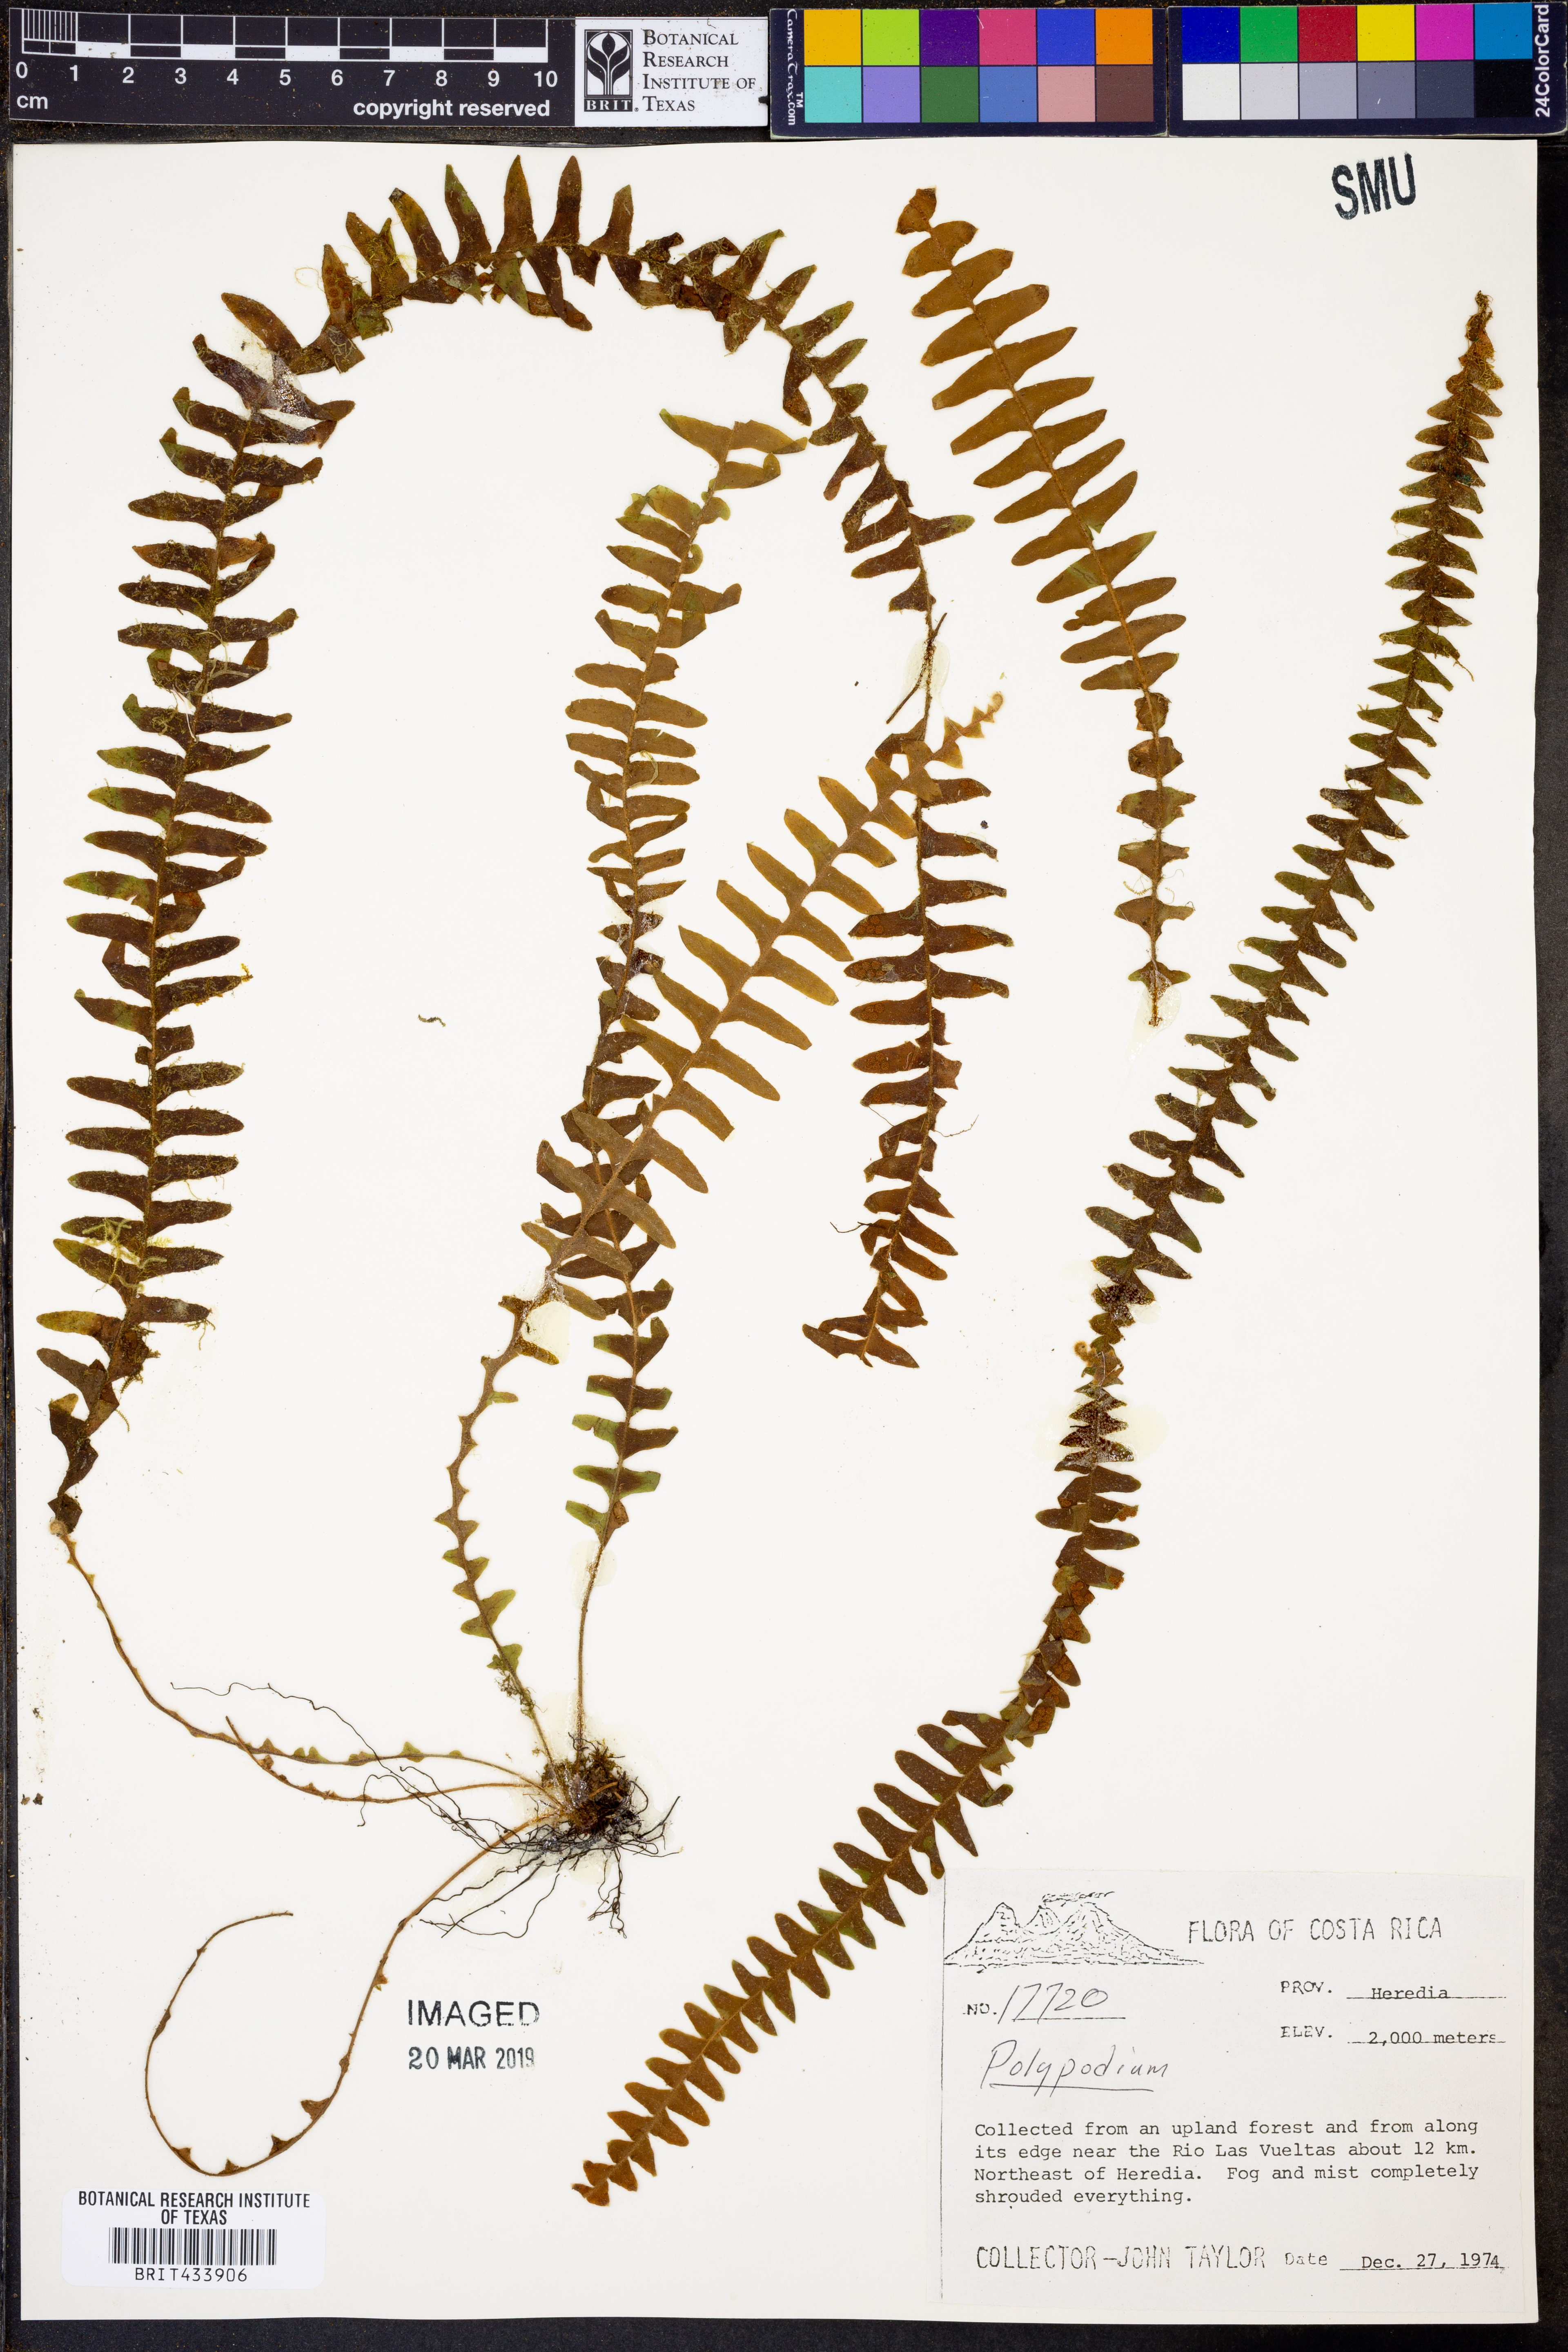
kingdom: Plantae
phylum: Tracheophyta
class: Polypodiopsida
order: Polypodiales
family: Polypodiaceae
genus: Polypodium
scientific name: Polypodium
